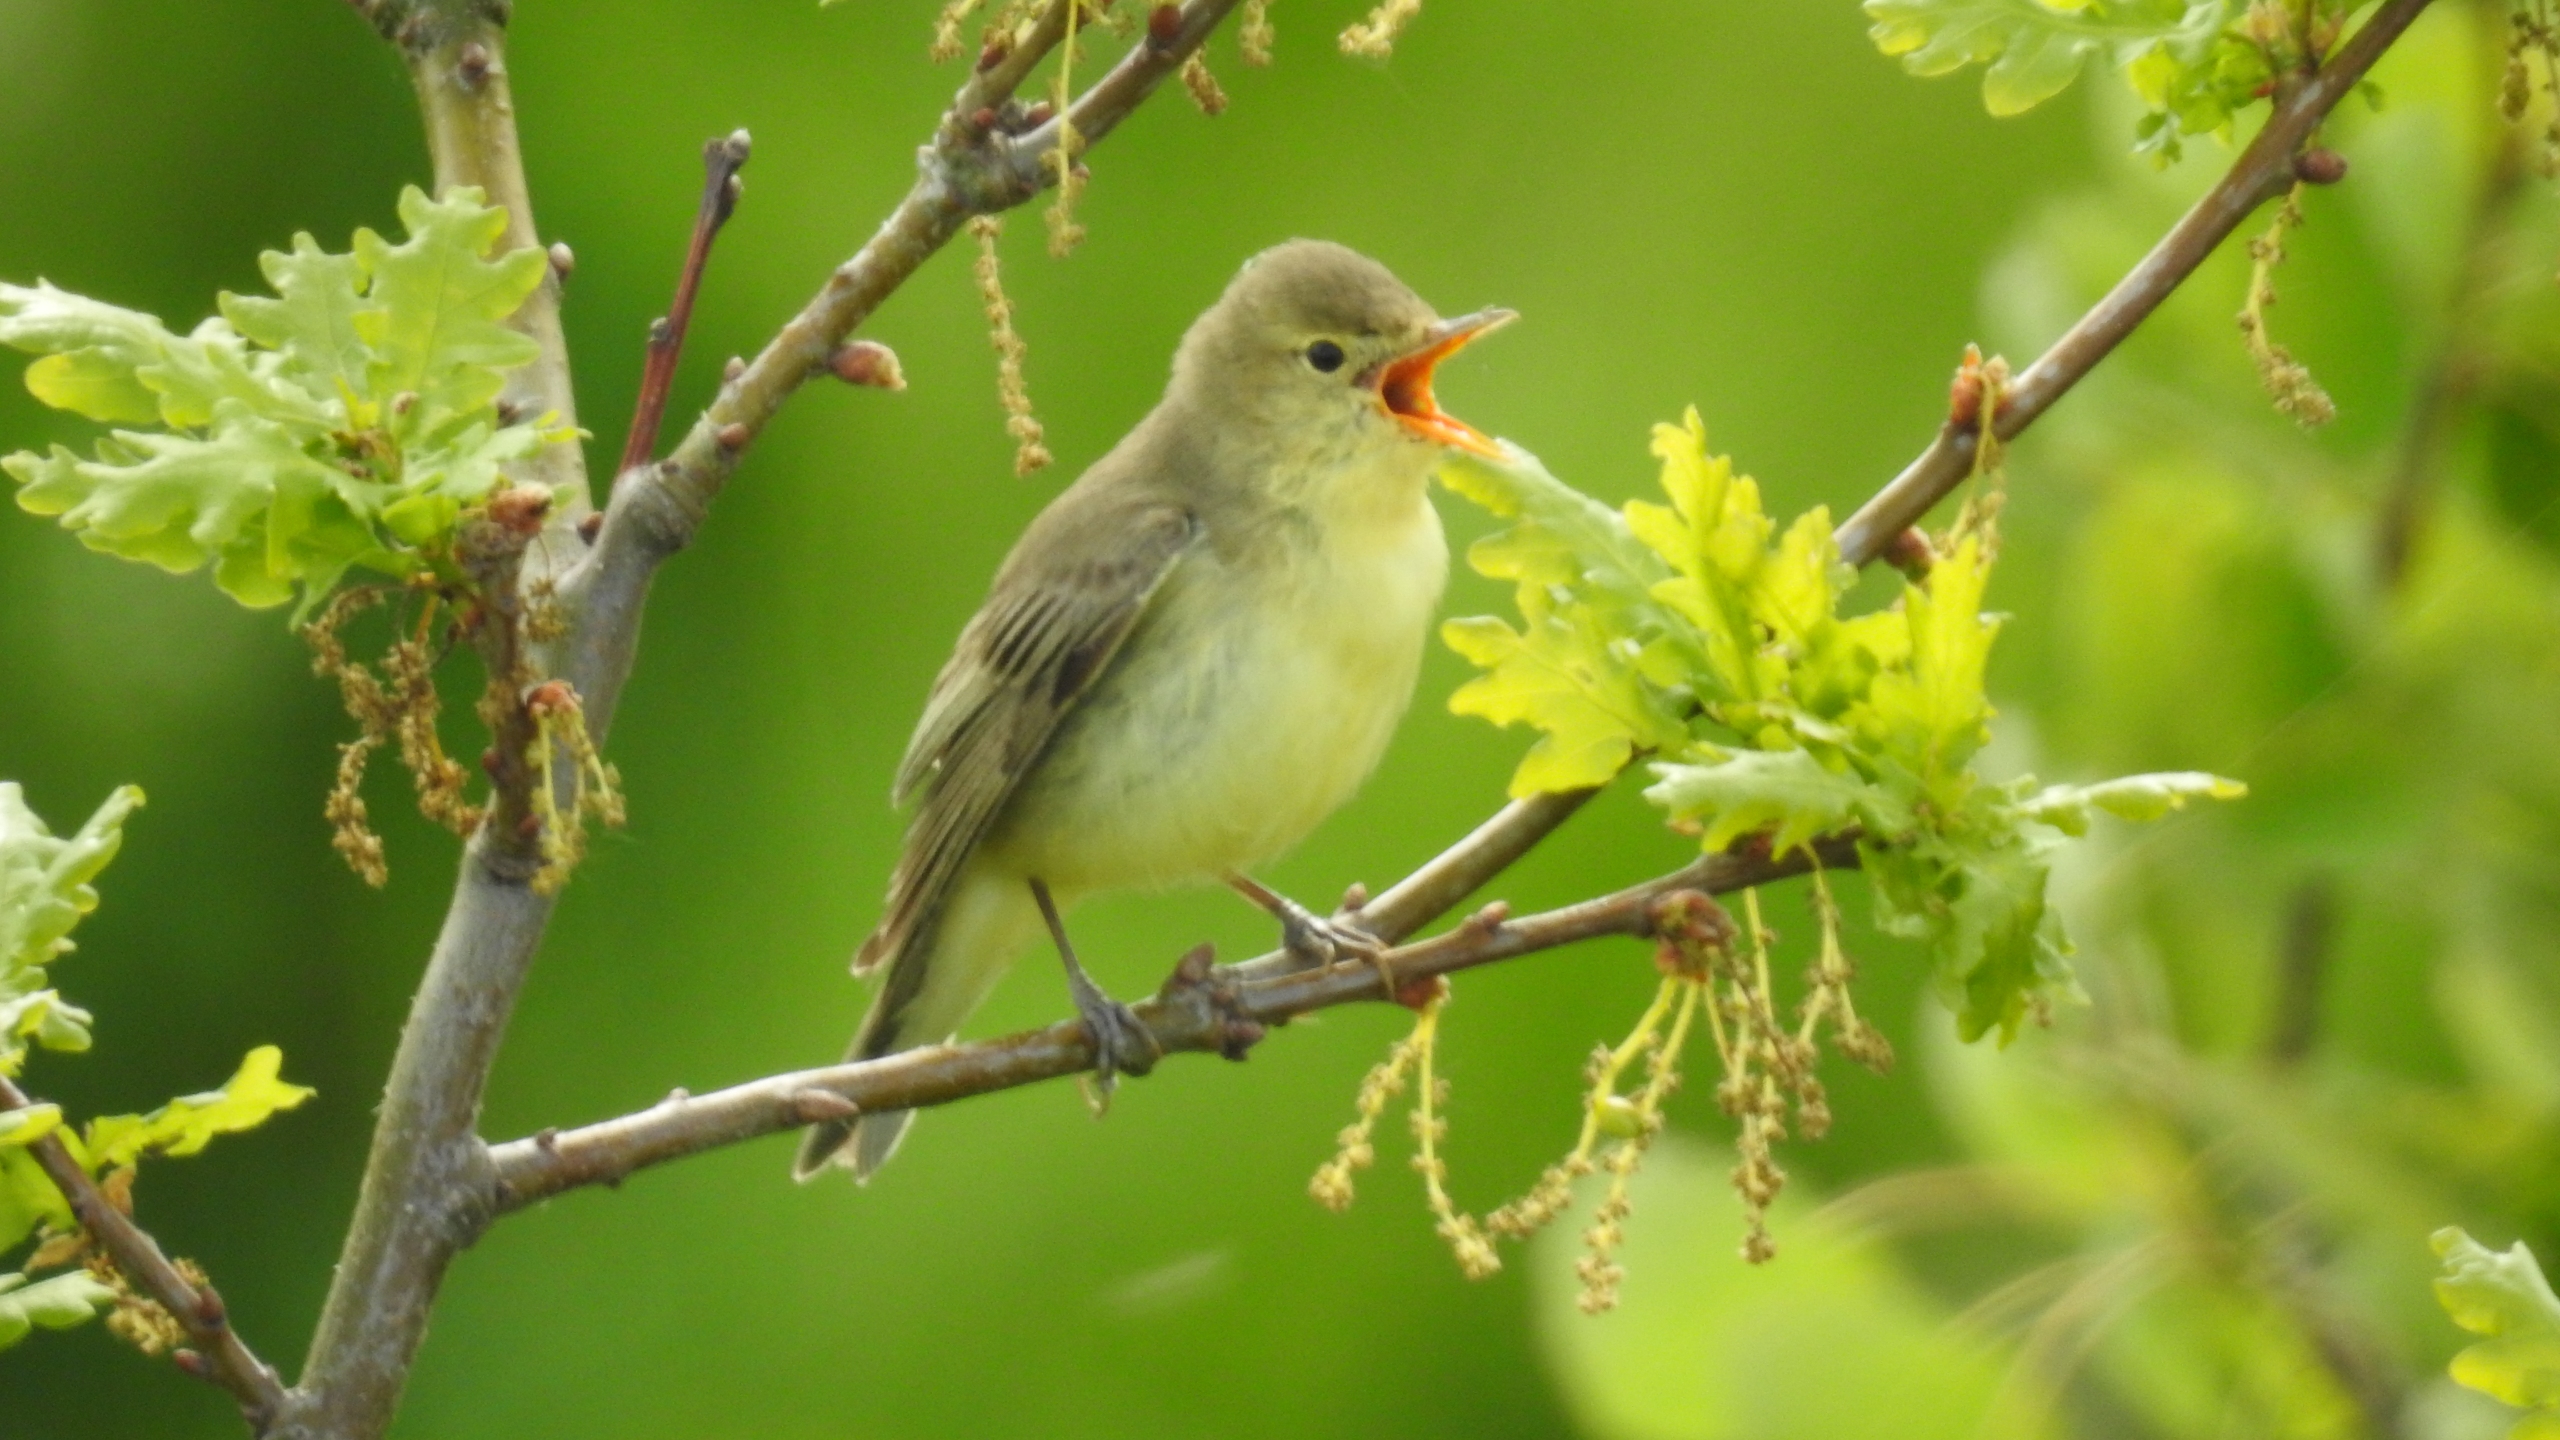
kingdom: Animalia
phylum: Chordata
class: Aves
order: Passeriformes
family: Acrocephalidae
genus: Hippolais
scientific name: Hippolais icterina
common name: Gulbug
